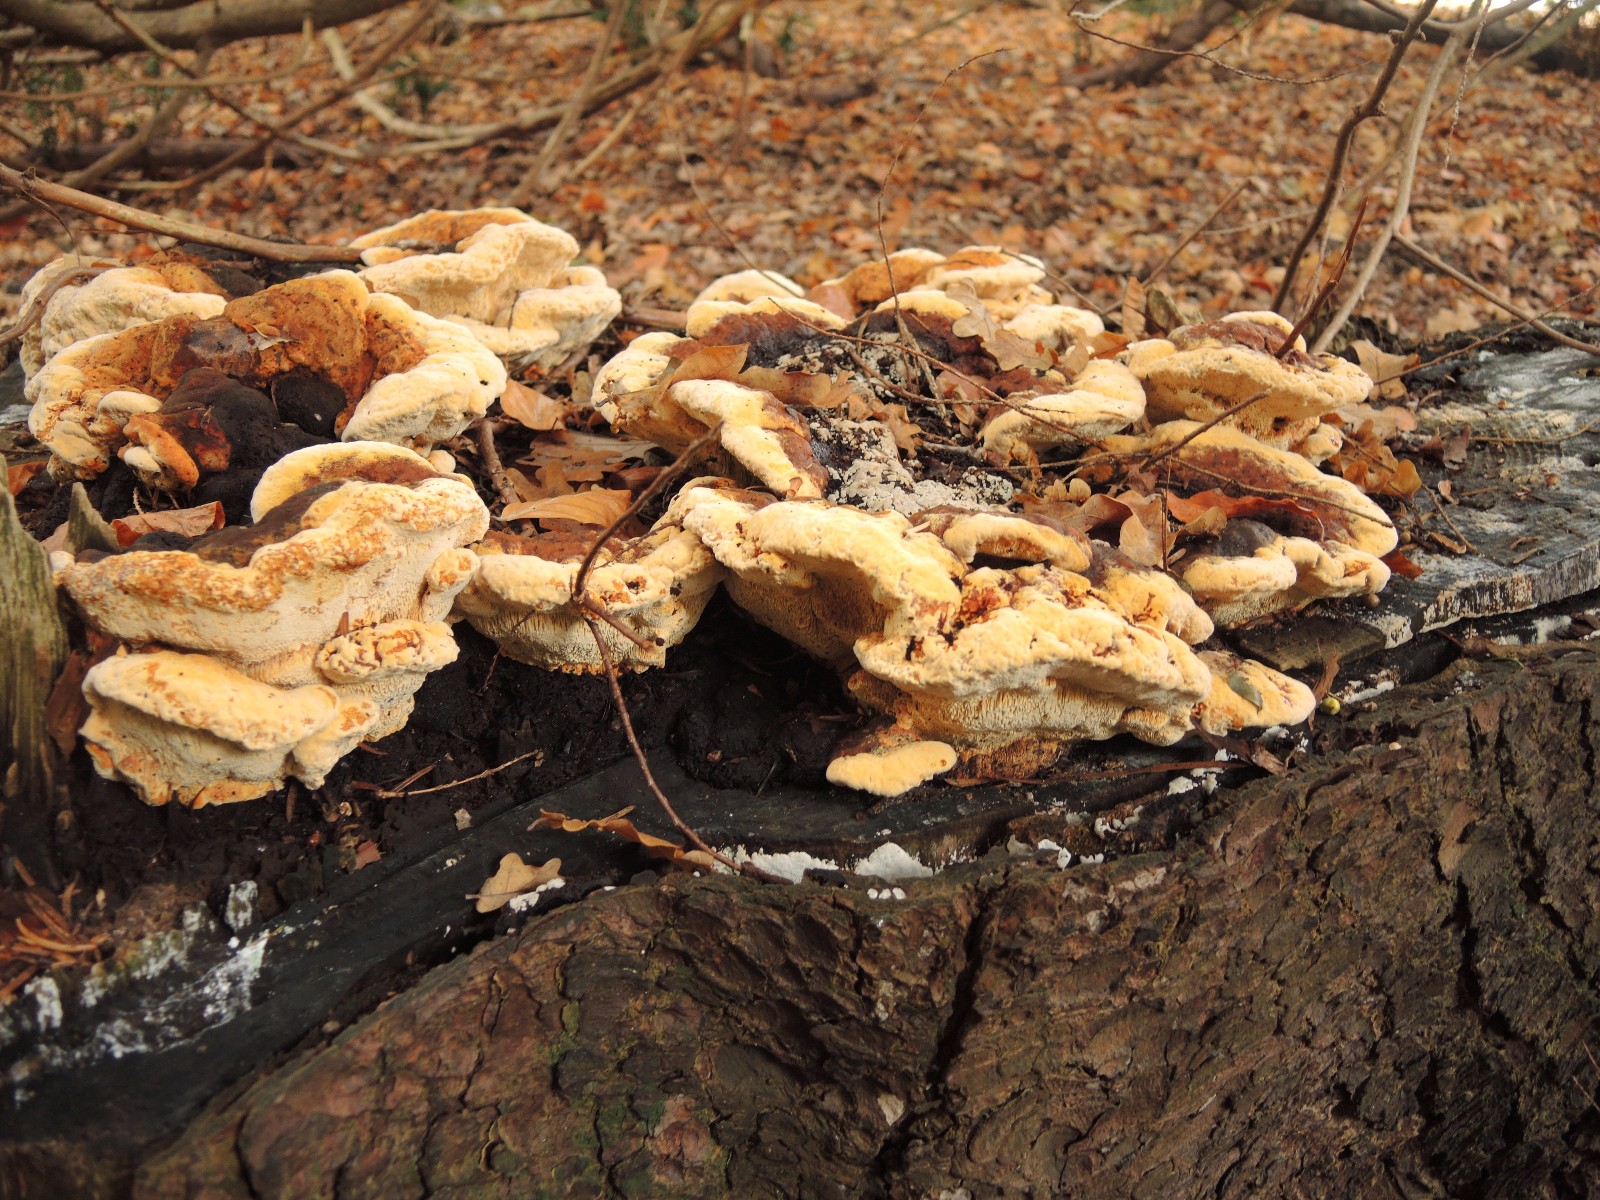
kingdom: Fungi
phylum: Basidiomycota
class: Agaricomycetes
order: Gloeophyllales
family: Gloeophyllaceae
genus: Gloeophyllum
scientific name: Gloeophyllum odoratum
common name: duftende korkhat
